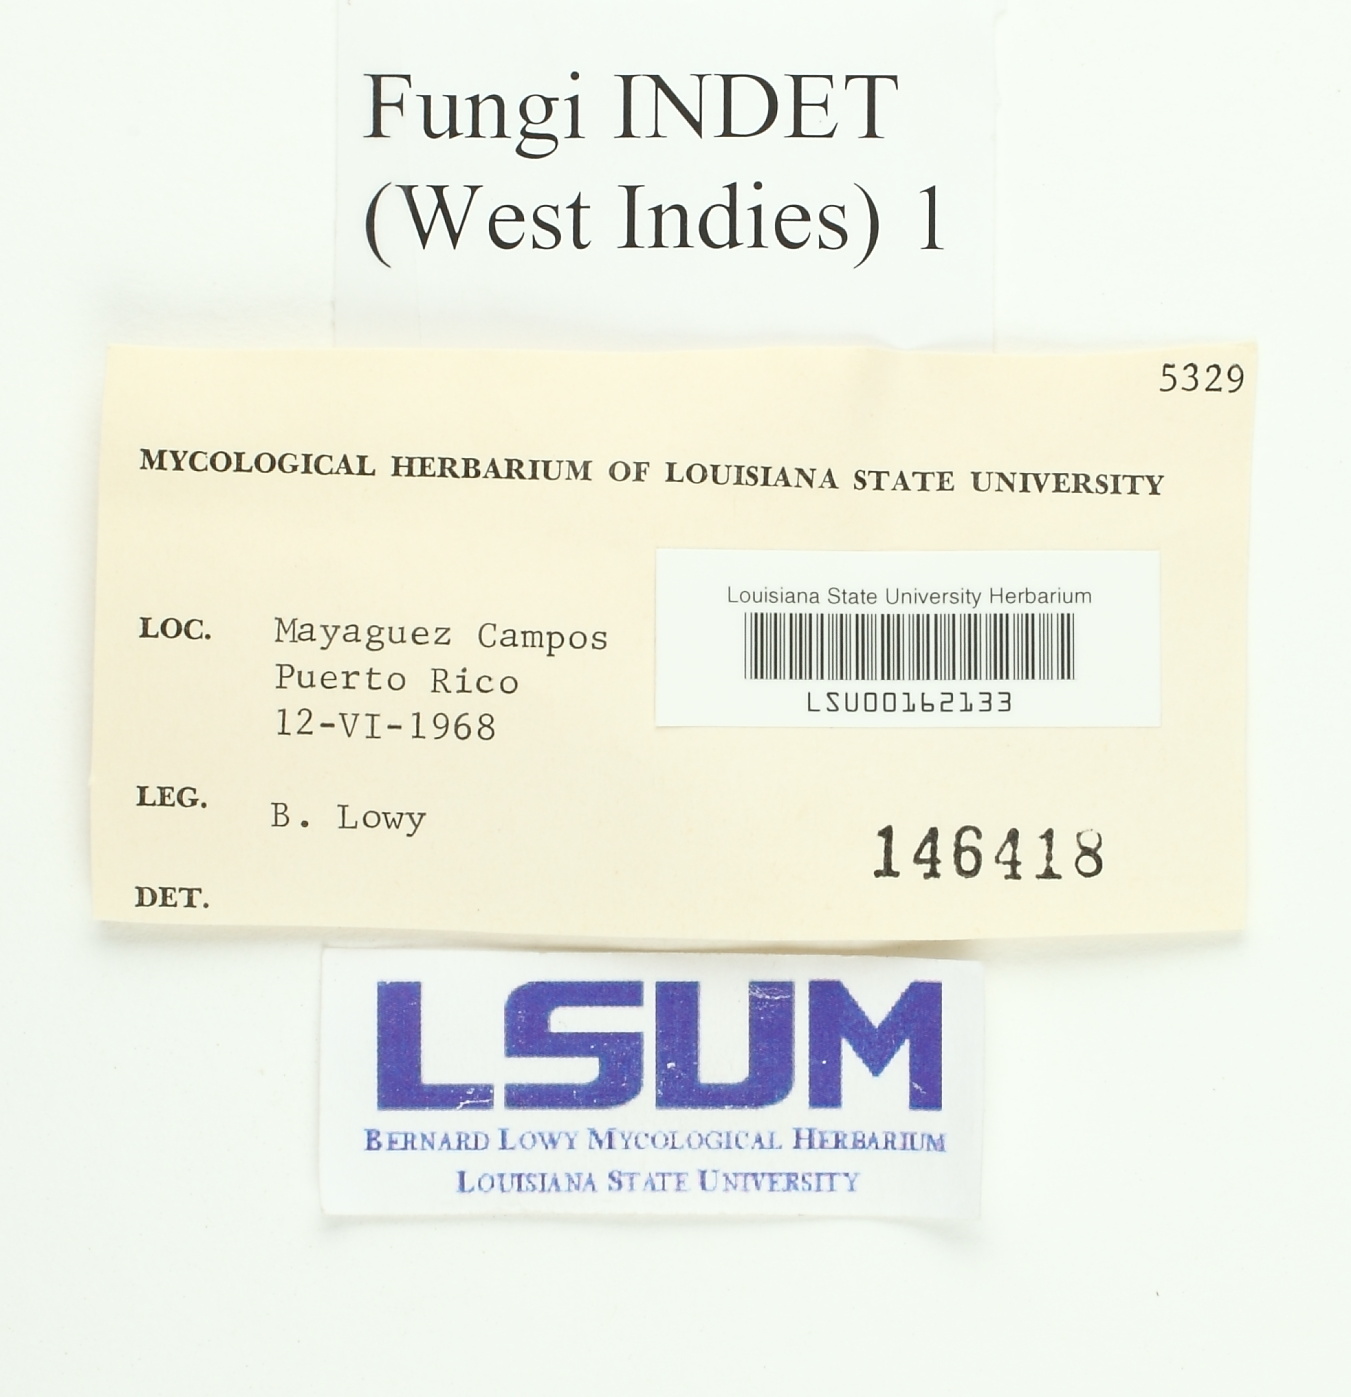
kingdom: Fungi
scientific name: Fungi
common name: Fungi
